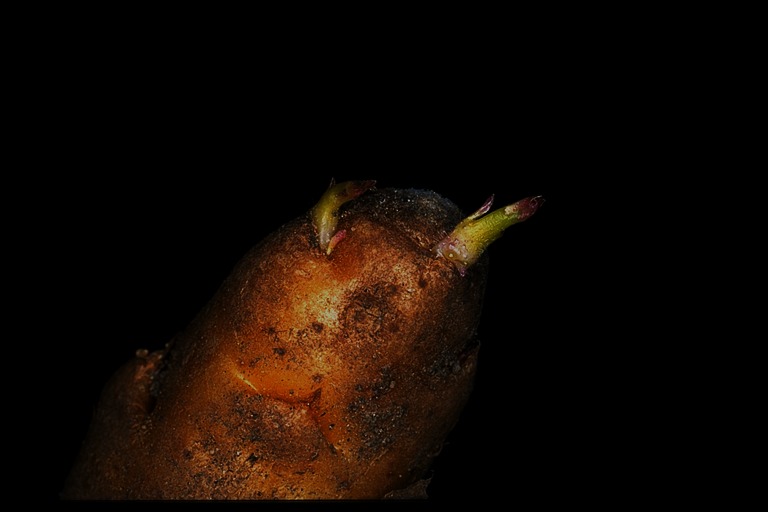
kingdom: Plantae
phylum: Tracheophyta
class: Magnoliopsida
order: Solanales
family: Solanaceae
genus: Solanum
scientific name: Solanum tuberosum
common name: Potato
